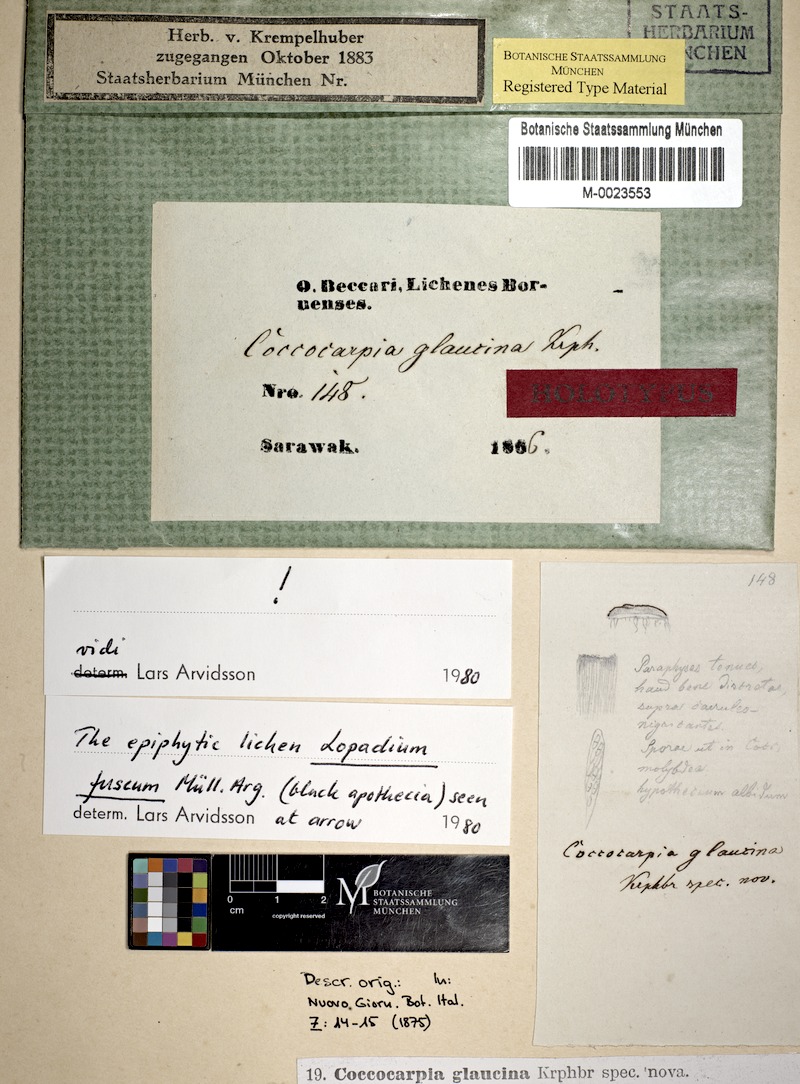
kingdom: Fungi
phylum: Ascomycota
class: Lecanoromycetes
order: Lecanorales
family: Byssolomataceae
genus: Calopadia
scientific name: Calopadia fusca
